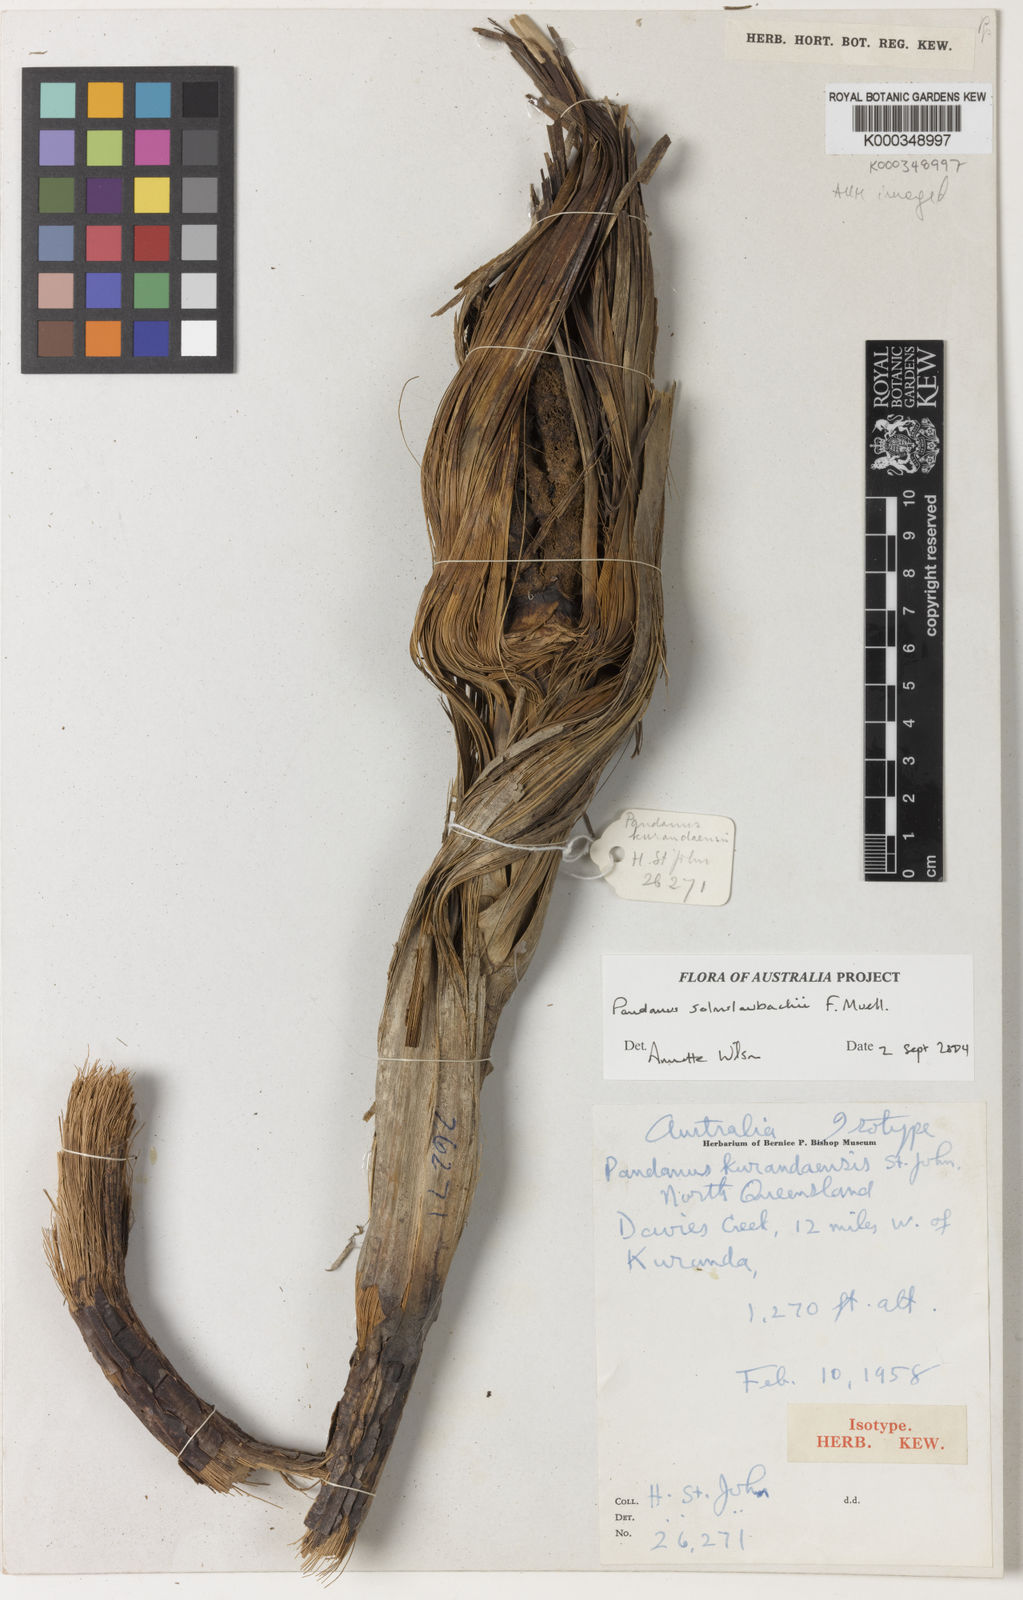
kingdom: Plantae
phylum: Tracheophyta
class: Liliopsida
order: Pandanales
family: Pandanaceae
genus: Pandanus
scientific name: Pandanus solms-laubachii
